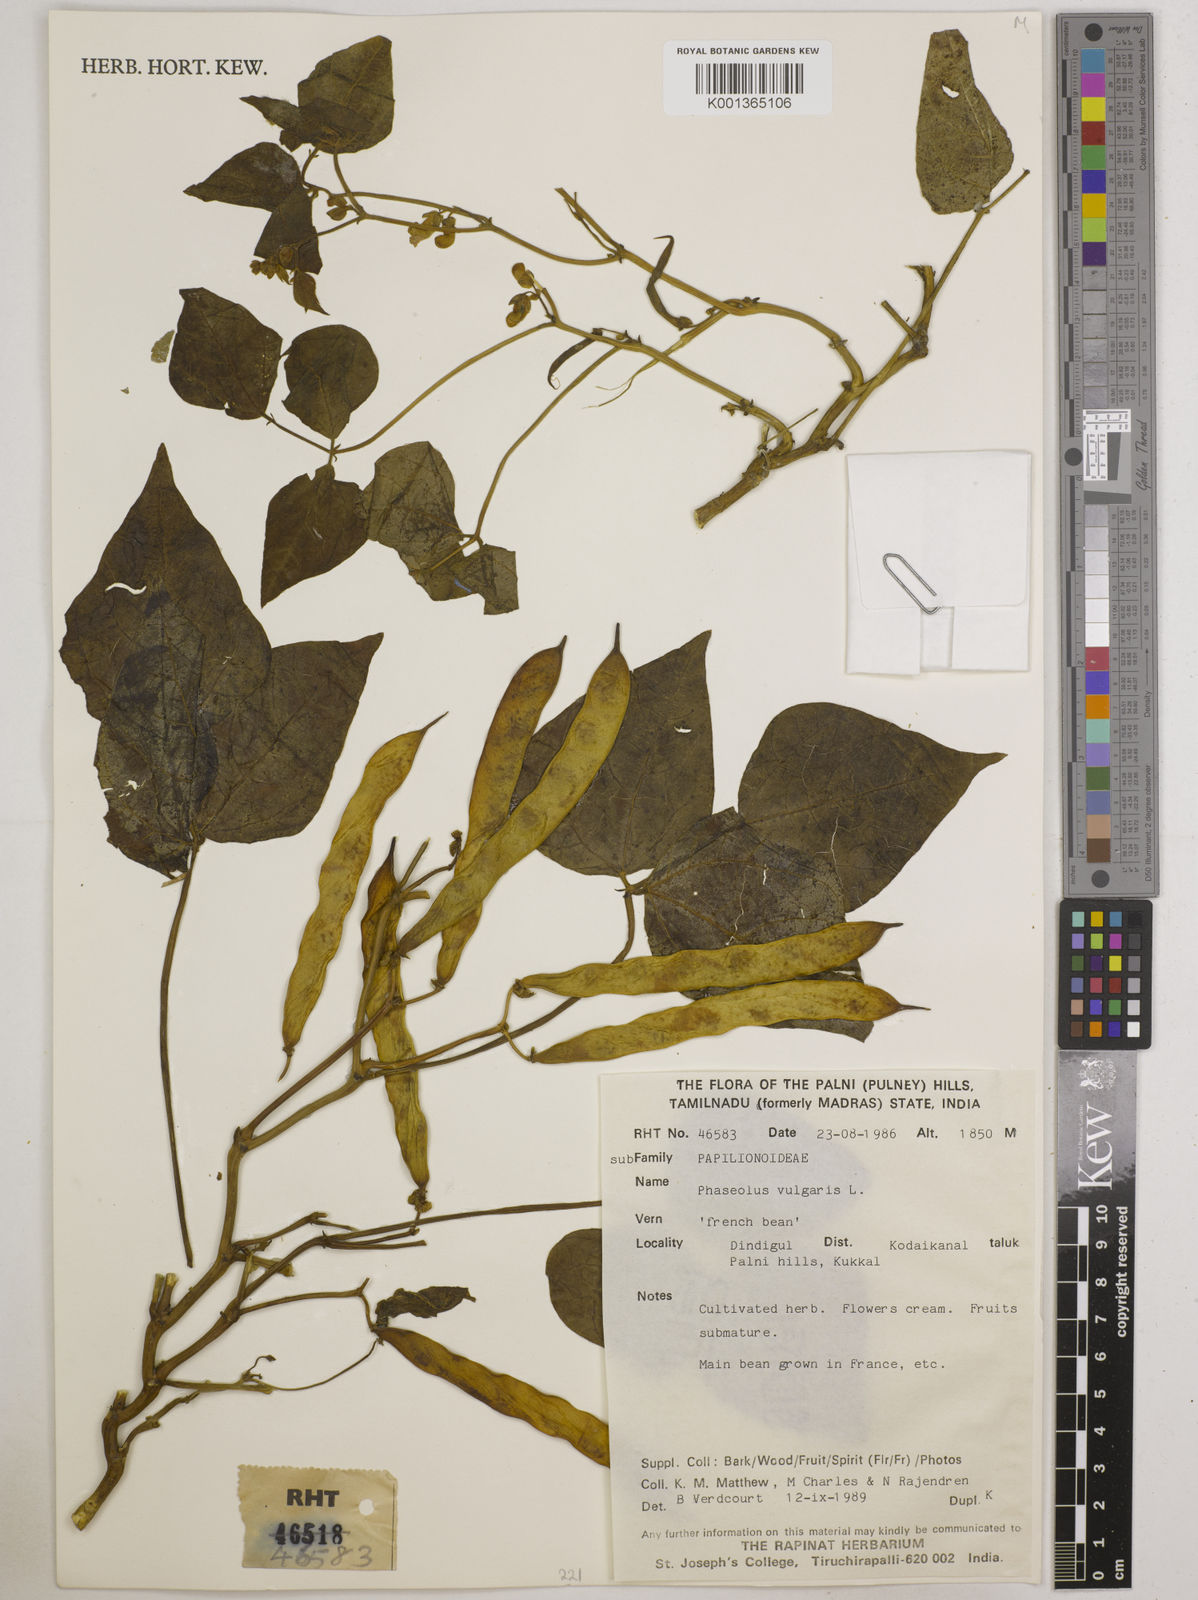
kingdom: Plantae
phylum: Tracheophyta
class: Magnoliopsida
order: Fabales
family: Fabaceae
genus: Phaseolus
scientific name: Phaseolus vulgaris
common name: Bean
